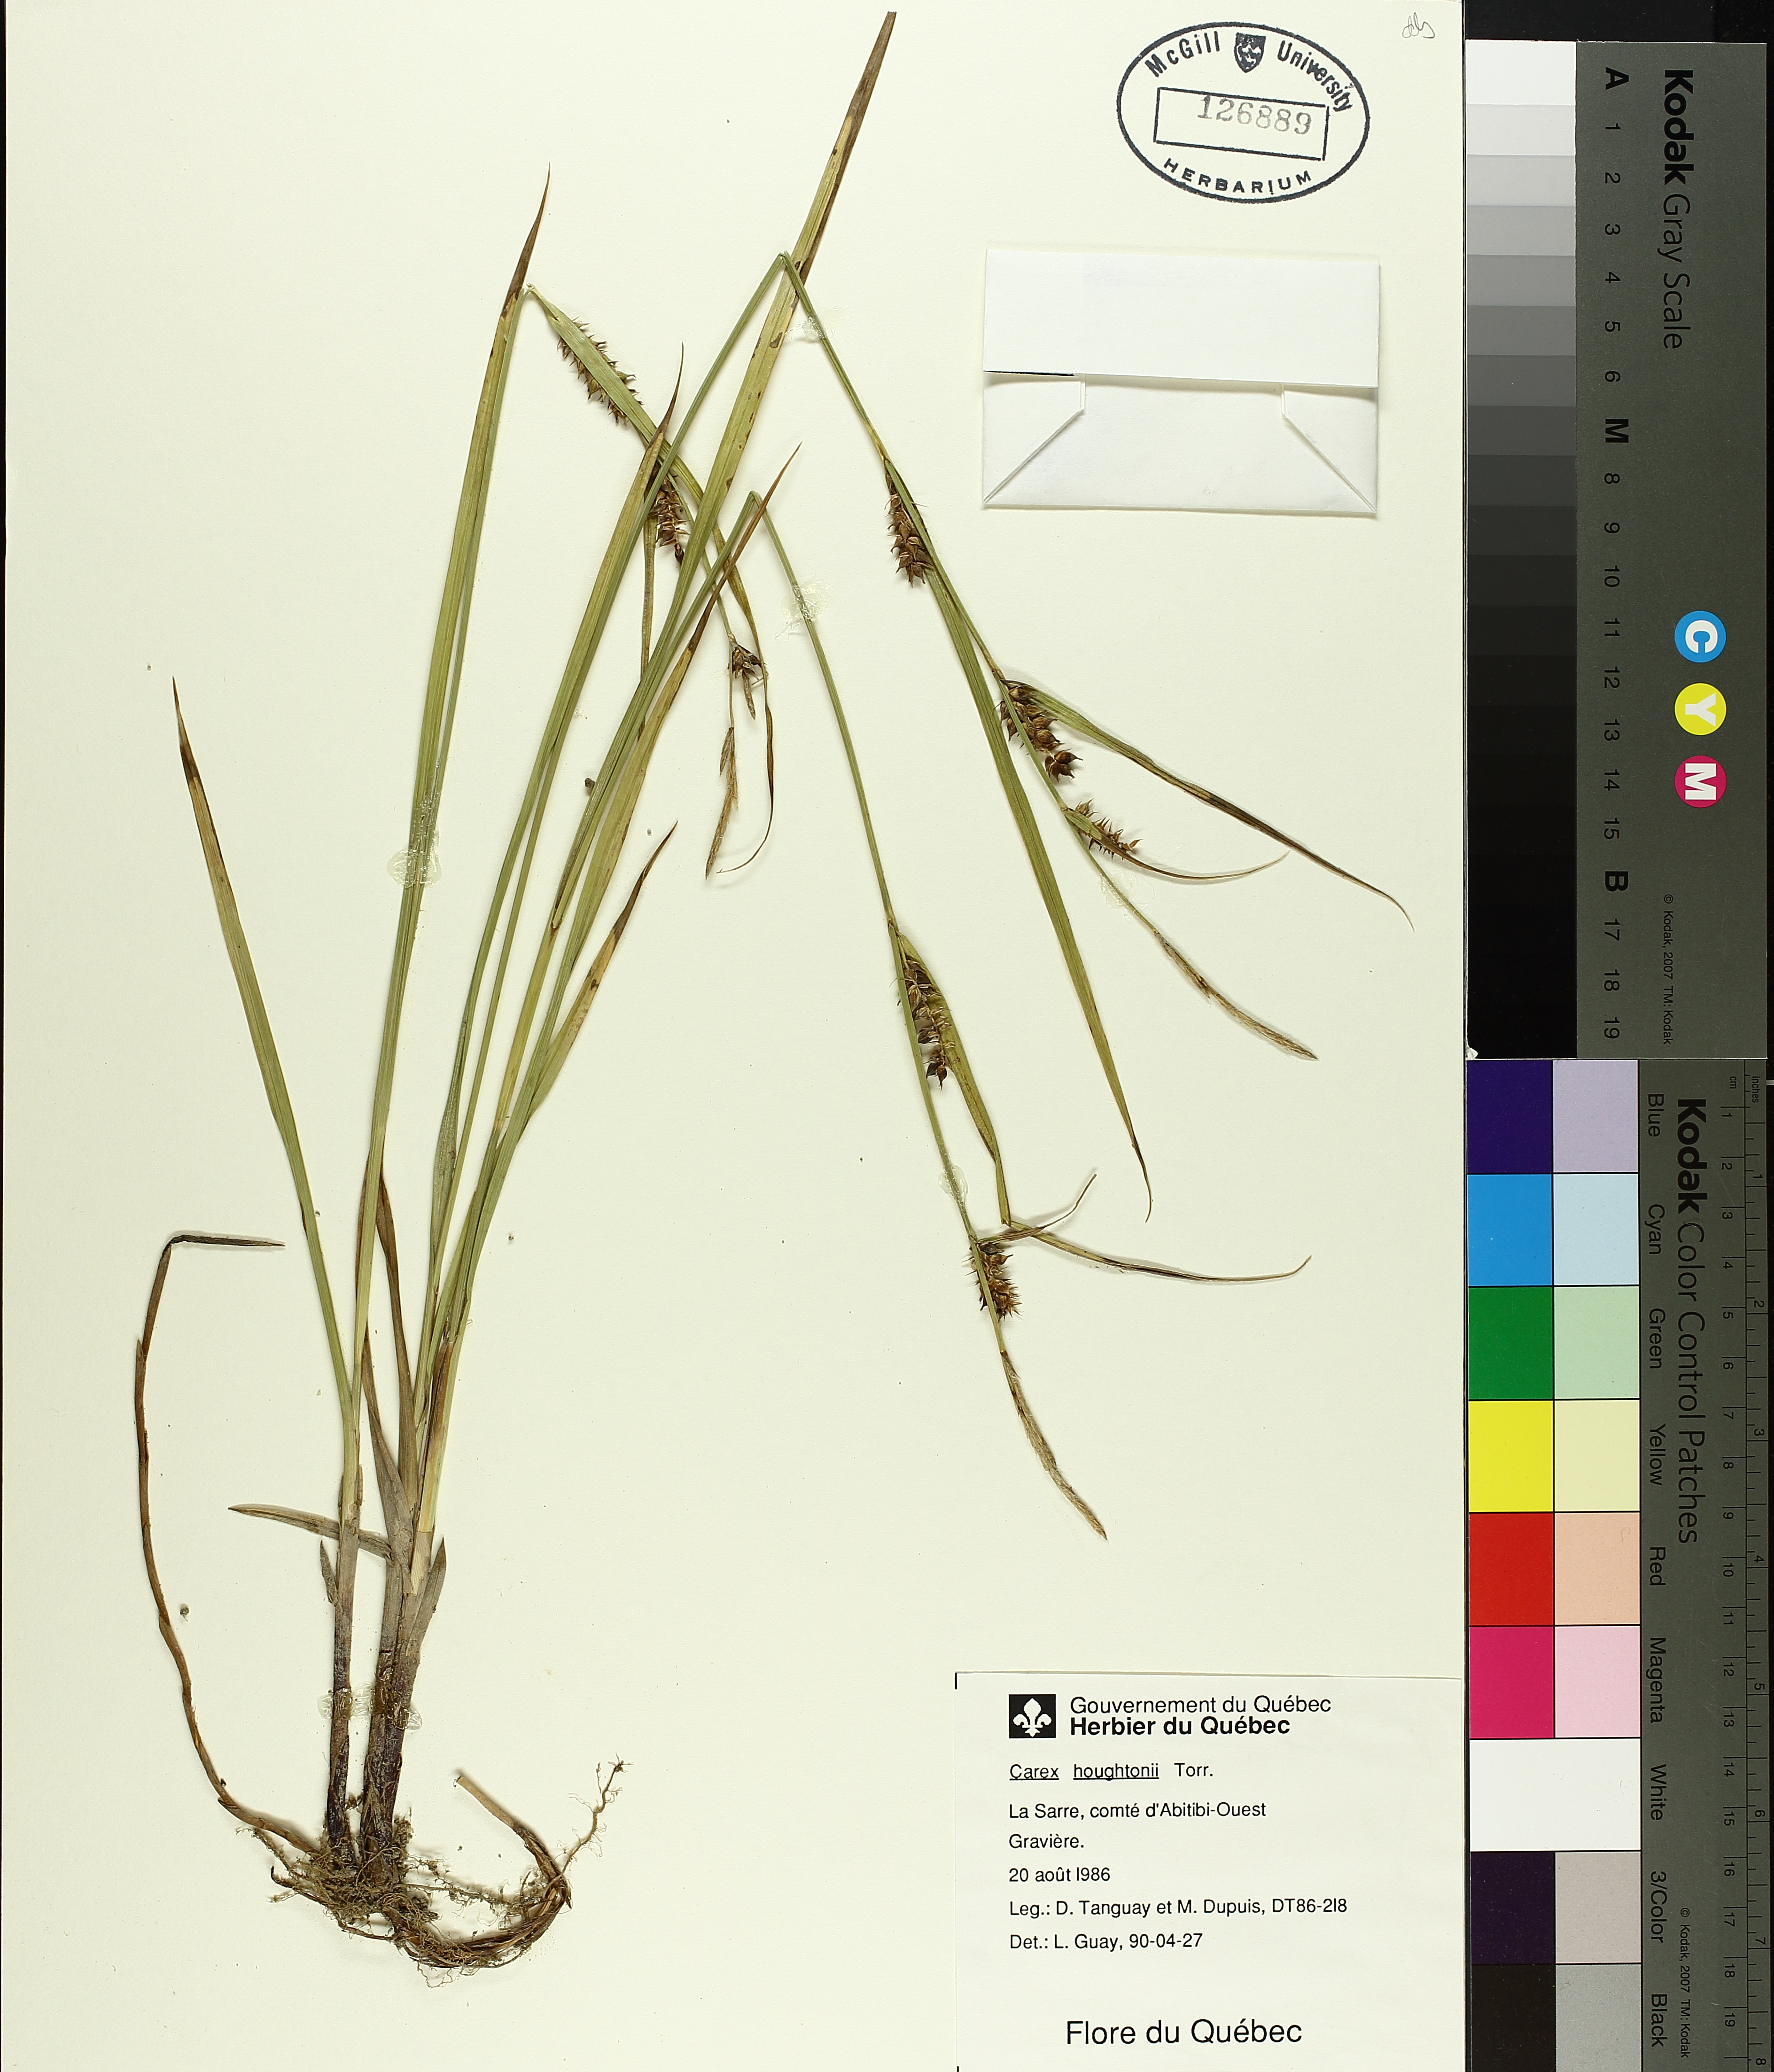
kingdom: Plantae
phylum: Tracheophyta
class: Liliopsida
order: Poales
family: Cyperaceae
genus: Carex
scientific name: Carex houghtoniana
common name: Houghton's sedge
